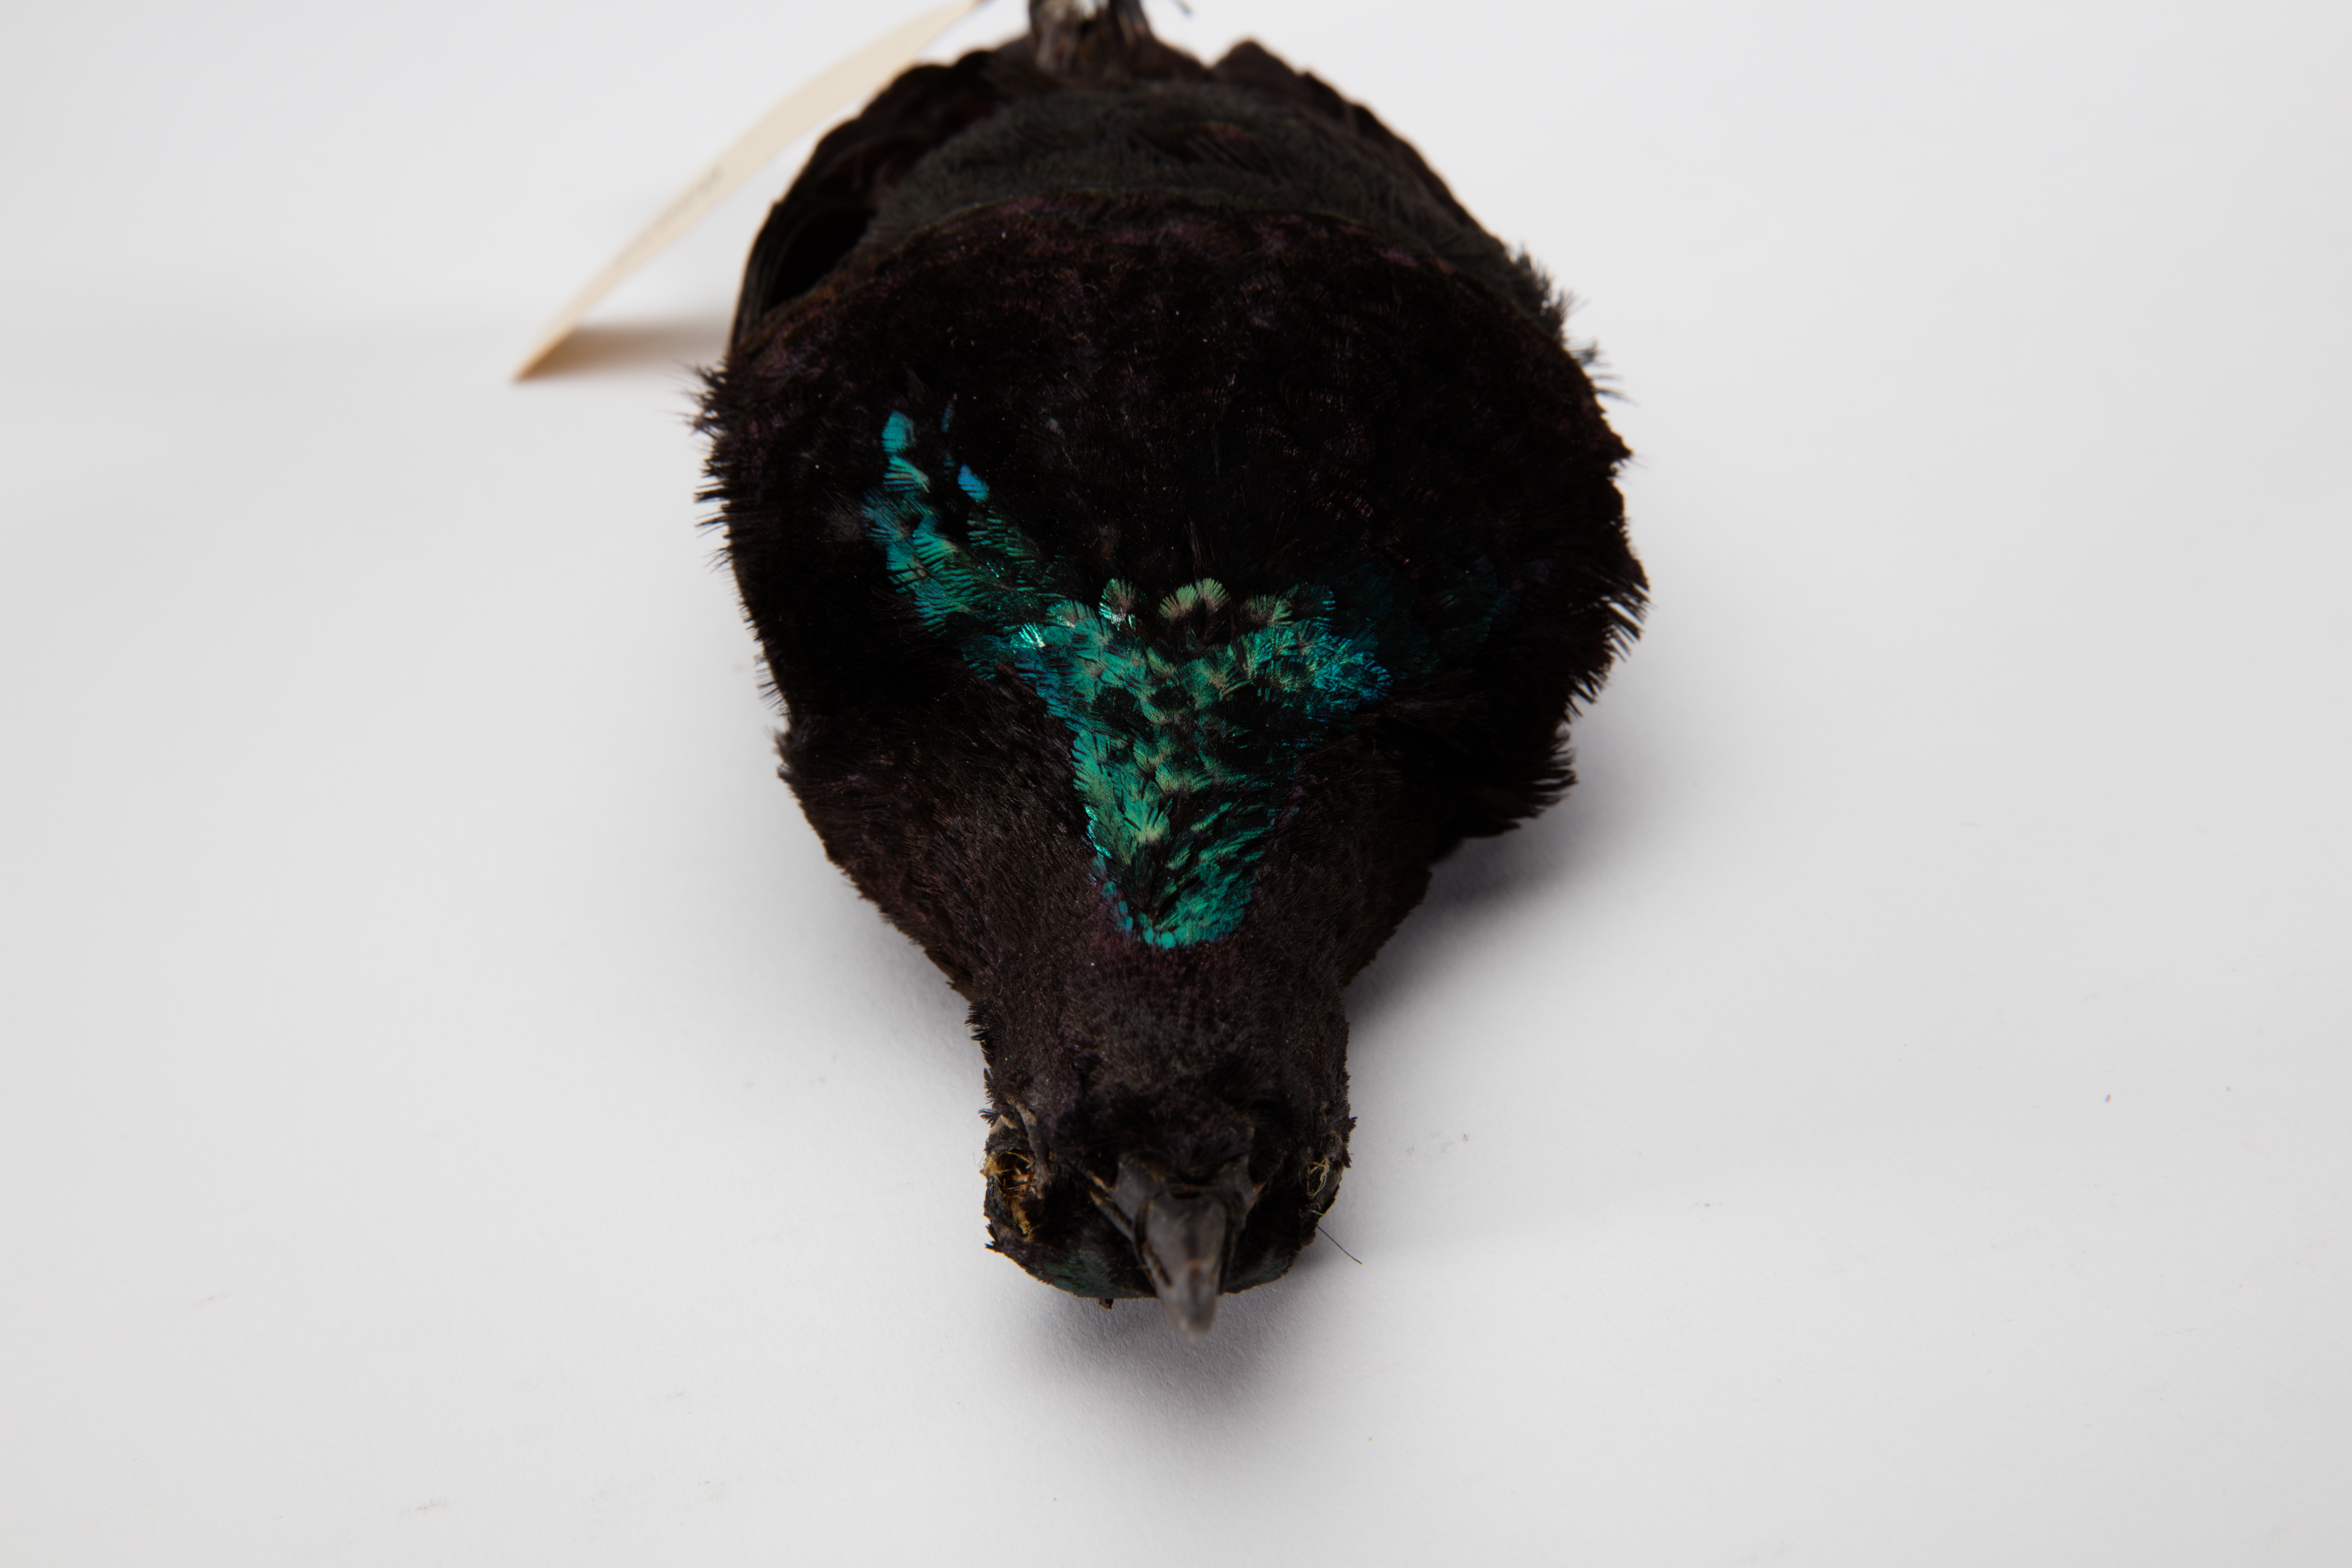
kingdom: Animalia
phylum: Chordata
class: Aves
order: Passeriformes
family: Paradisaeidae
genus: Ptiloris
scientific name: Ptiloris victoriae
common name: Victoria's riflebird
